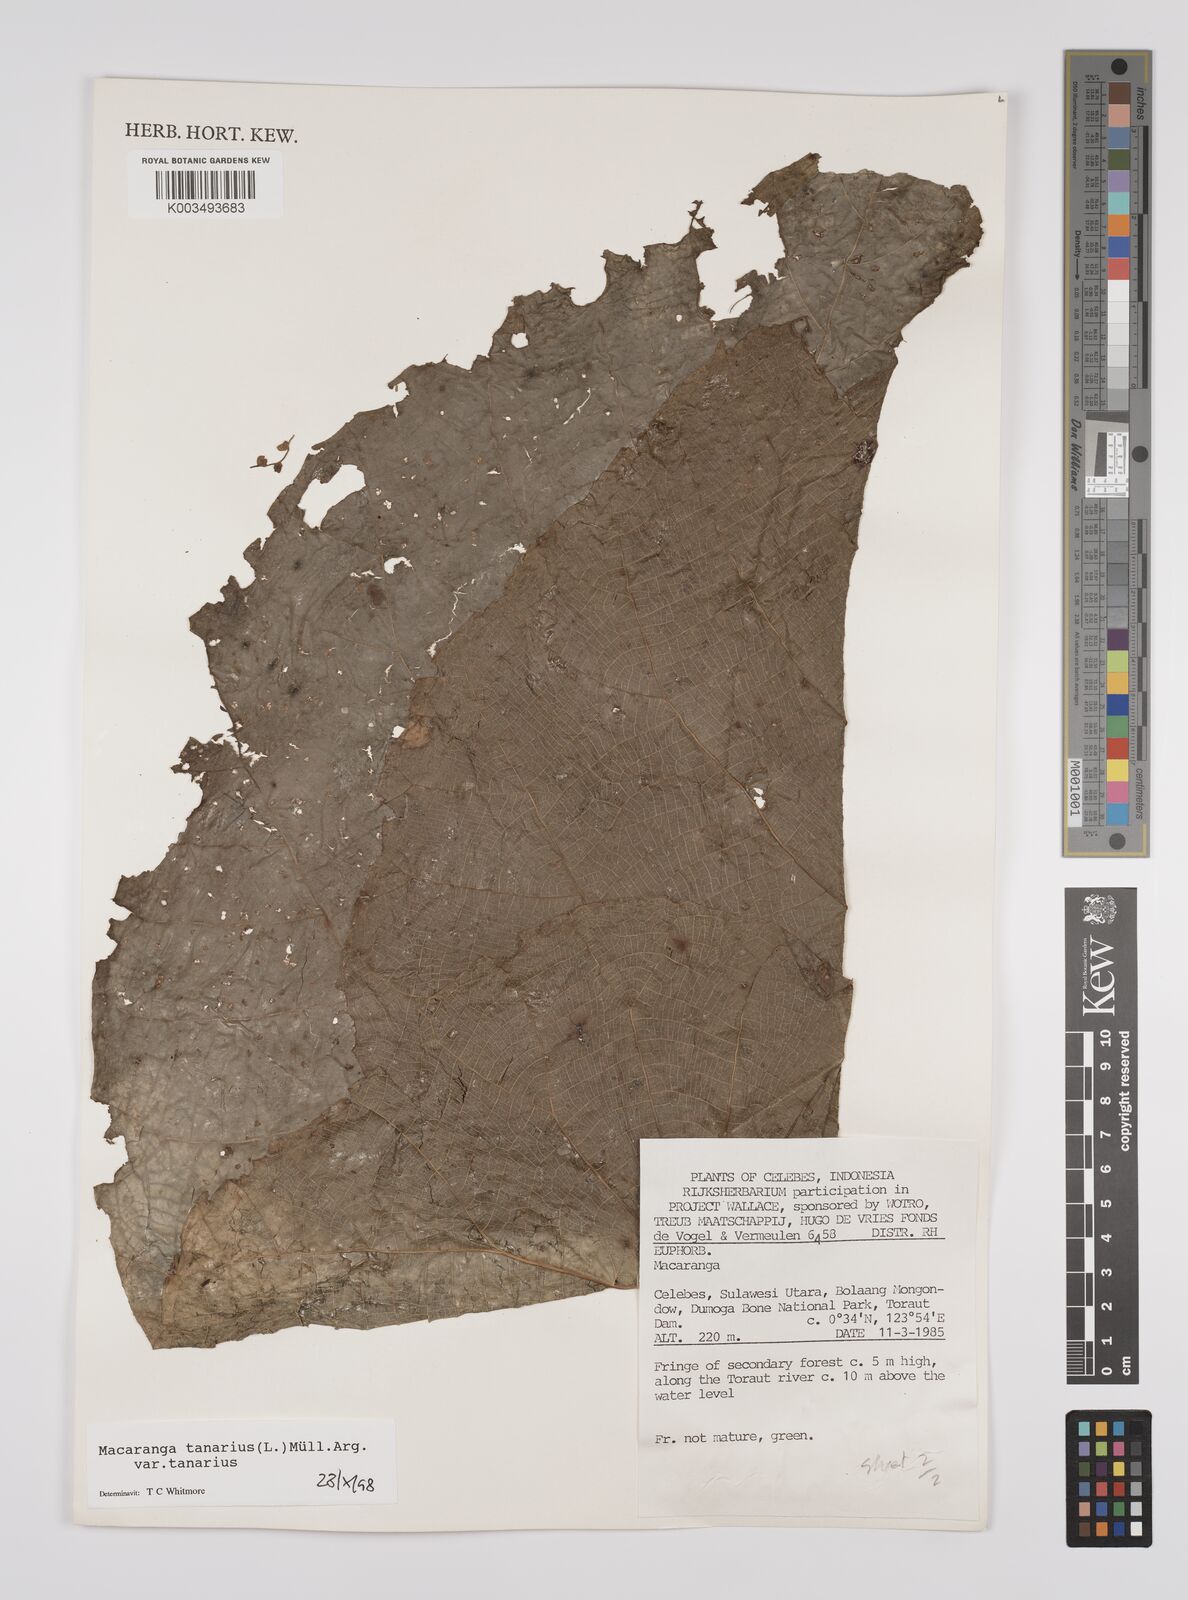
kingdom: Plantae
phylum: Tracheophyta
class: Magnoliopsida
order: Malpighiales
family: Euphorbiaceae
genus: Macaranga
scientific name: Macaranga tanarius
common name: Parasol leaf tree
